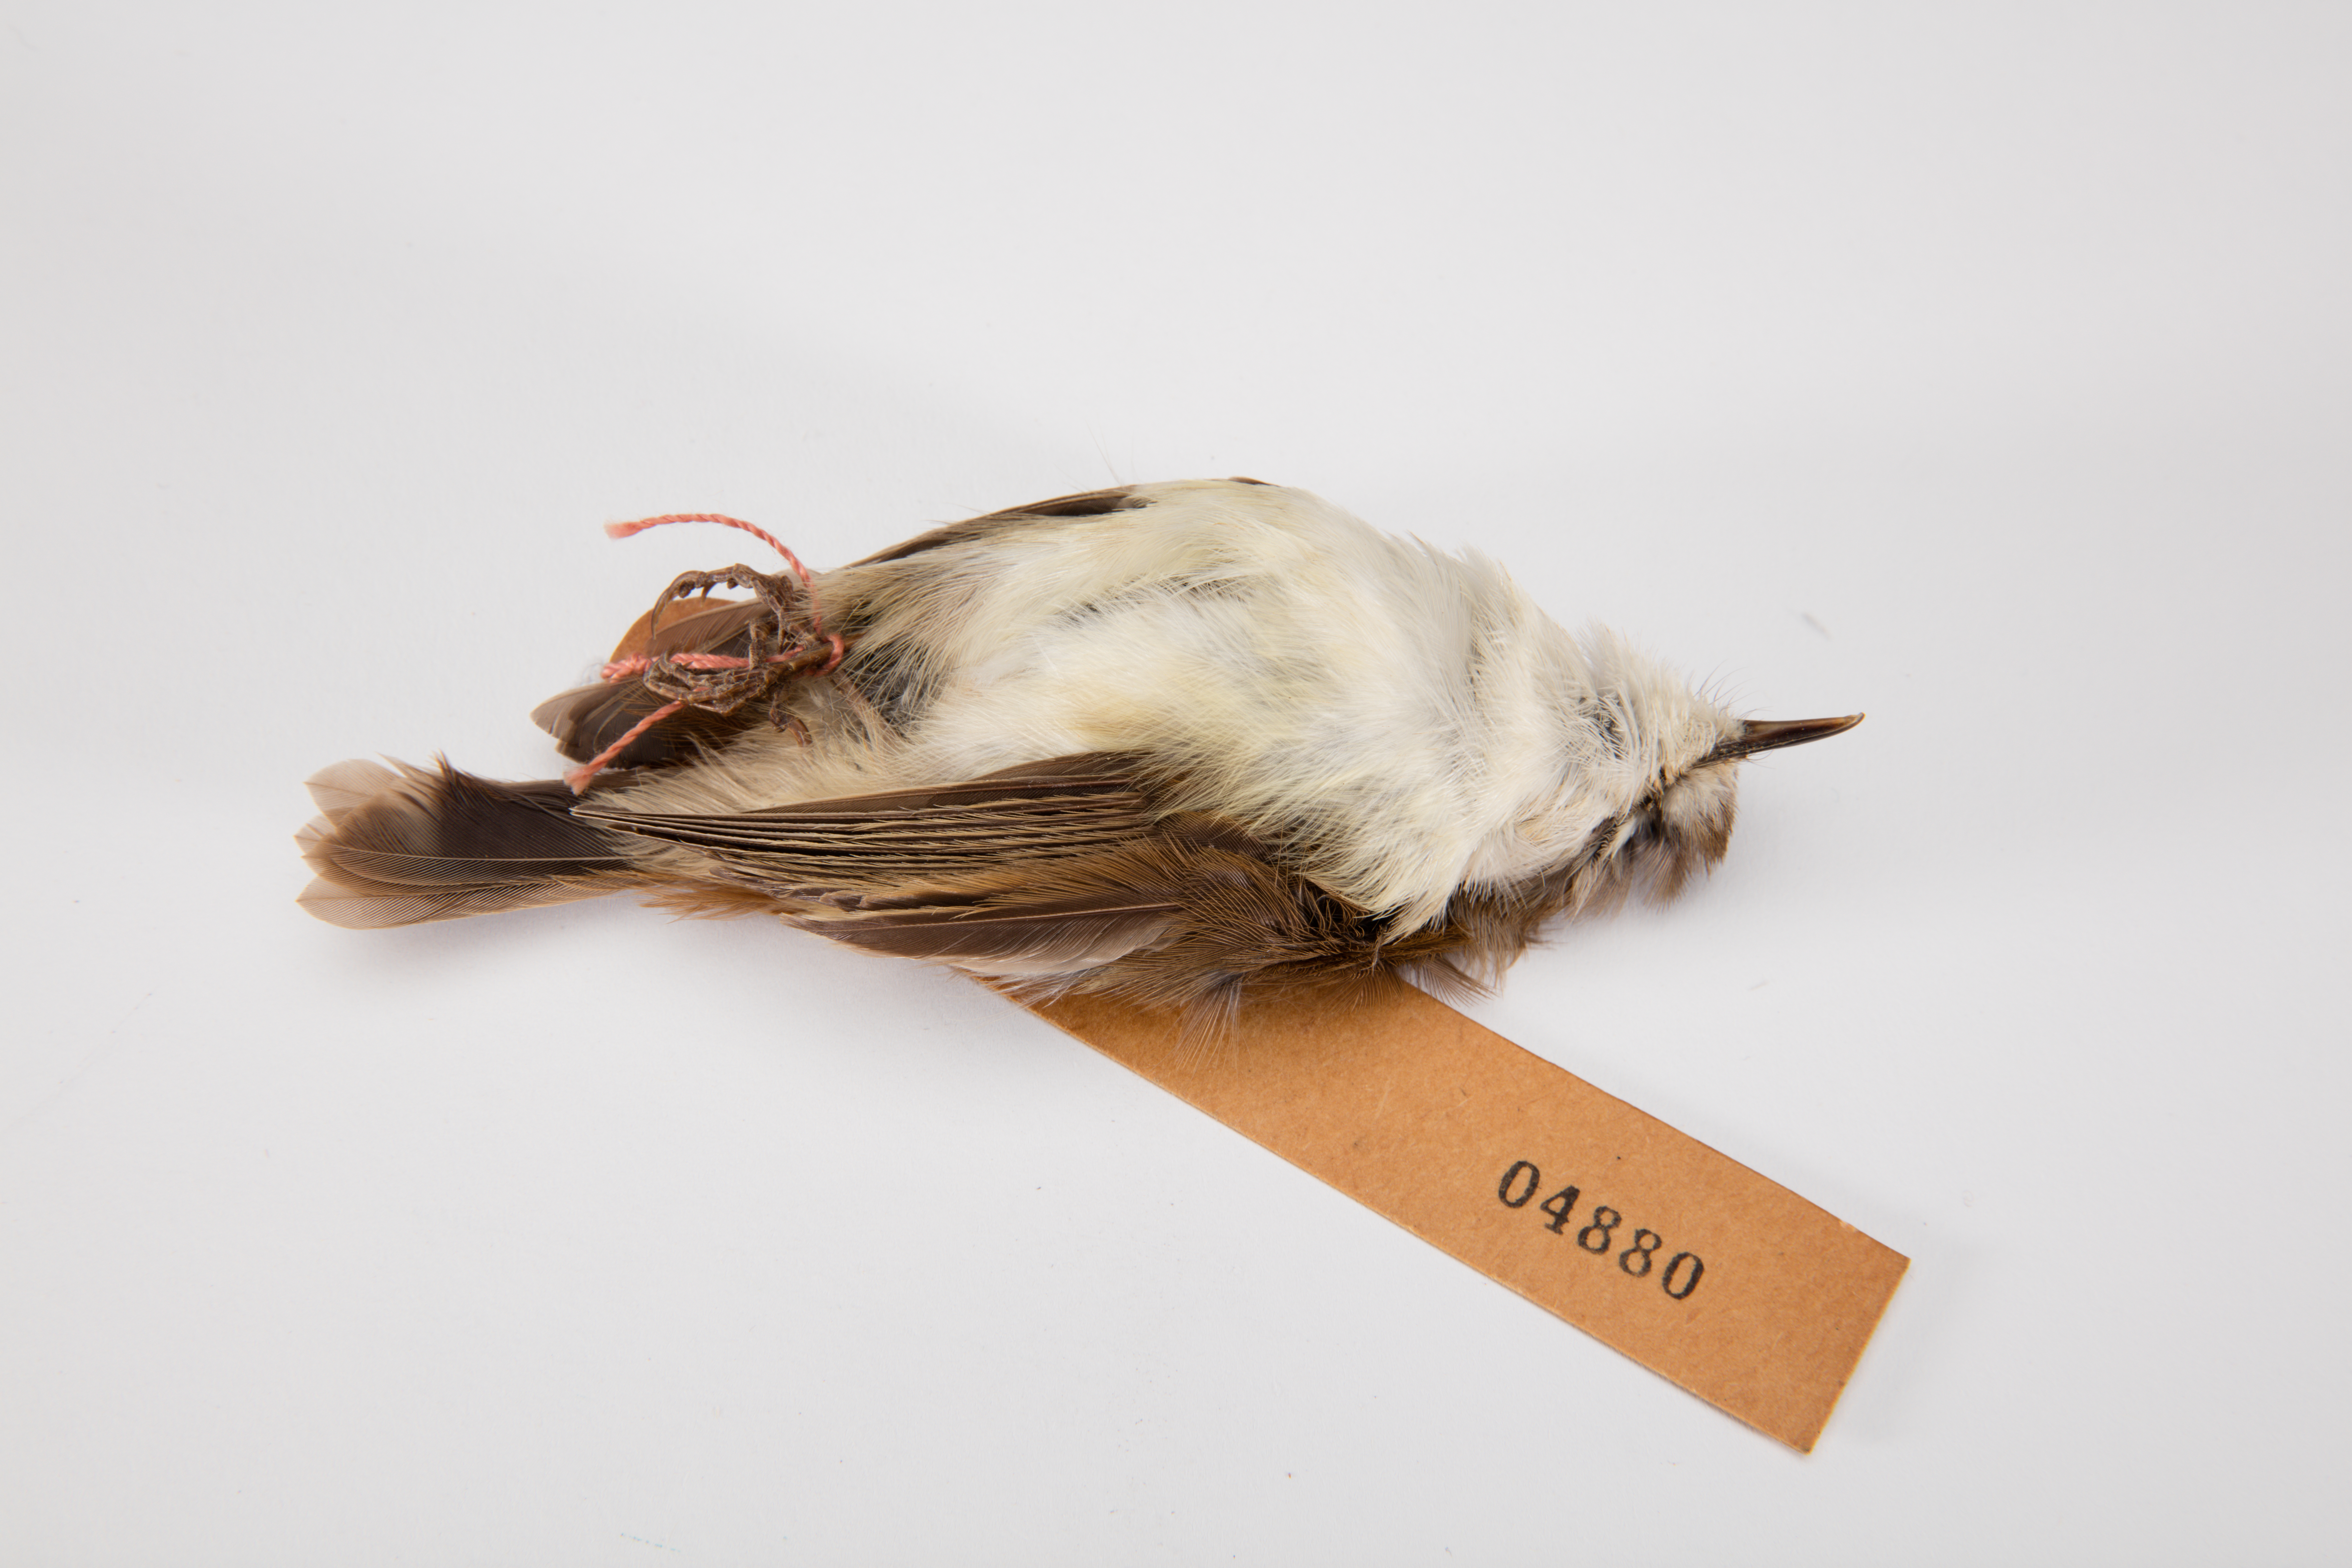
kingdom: Animalia
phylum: Chordata
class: Aves
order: Passeriformes
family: Acanthizidae
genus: Gerygone
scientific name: Gerygone albofrontata
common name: Chatham gerygone
